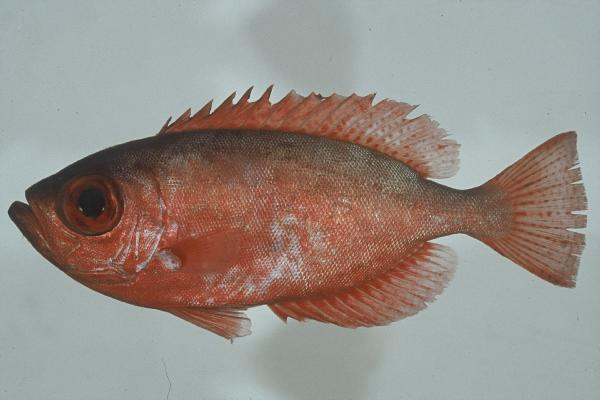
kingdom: Animalia
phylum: Chordata
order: Perciformes
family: Priacanthidae
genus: Heteropriacanthus
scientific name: Heteropriacanthus cruentatus
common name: Glasseye
